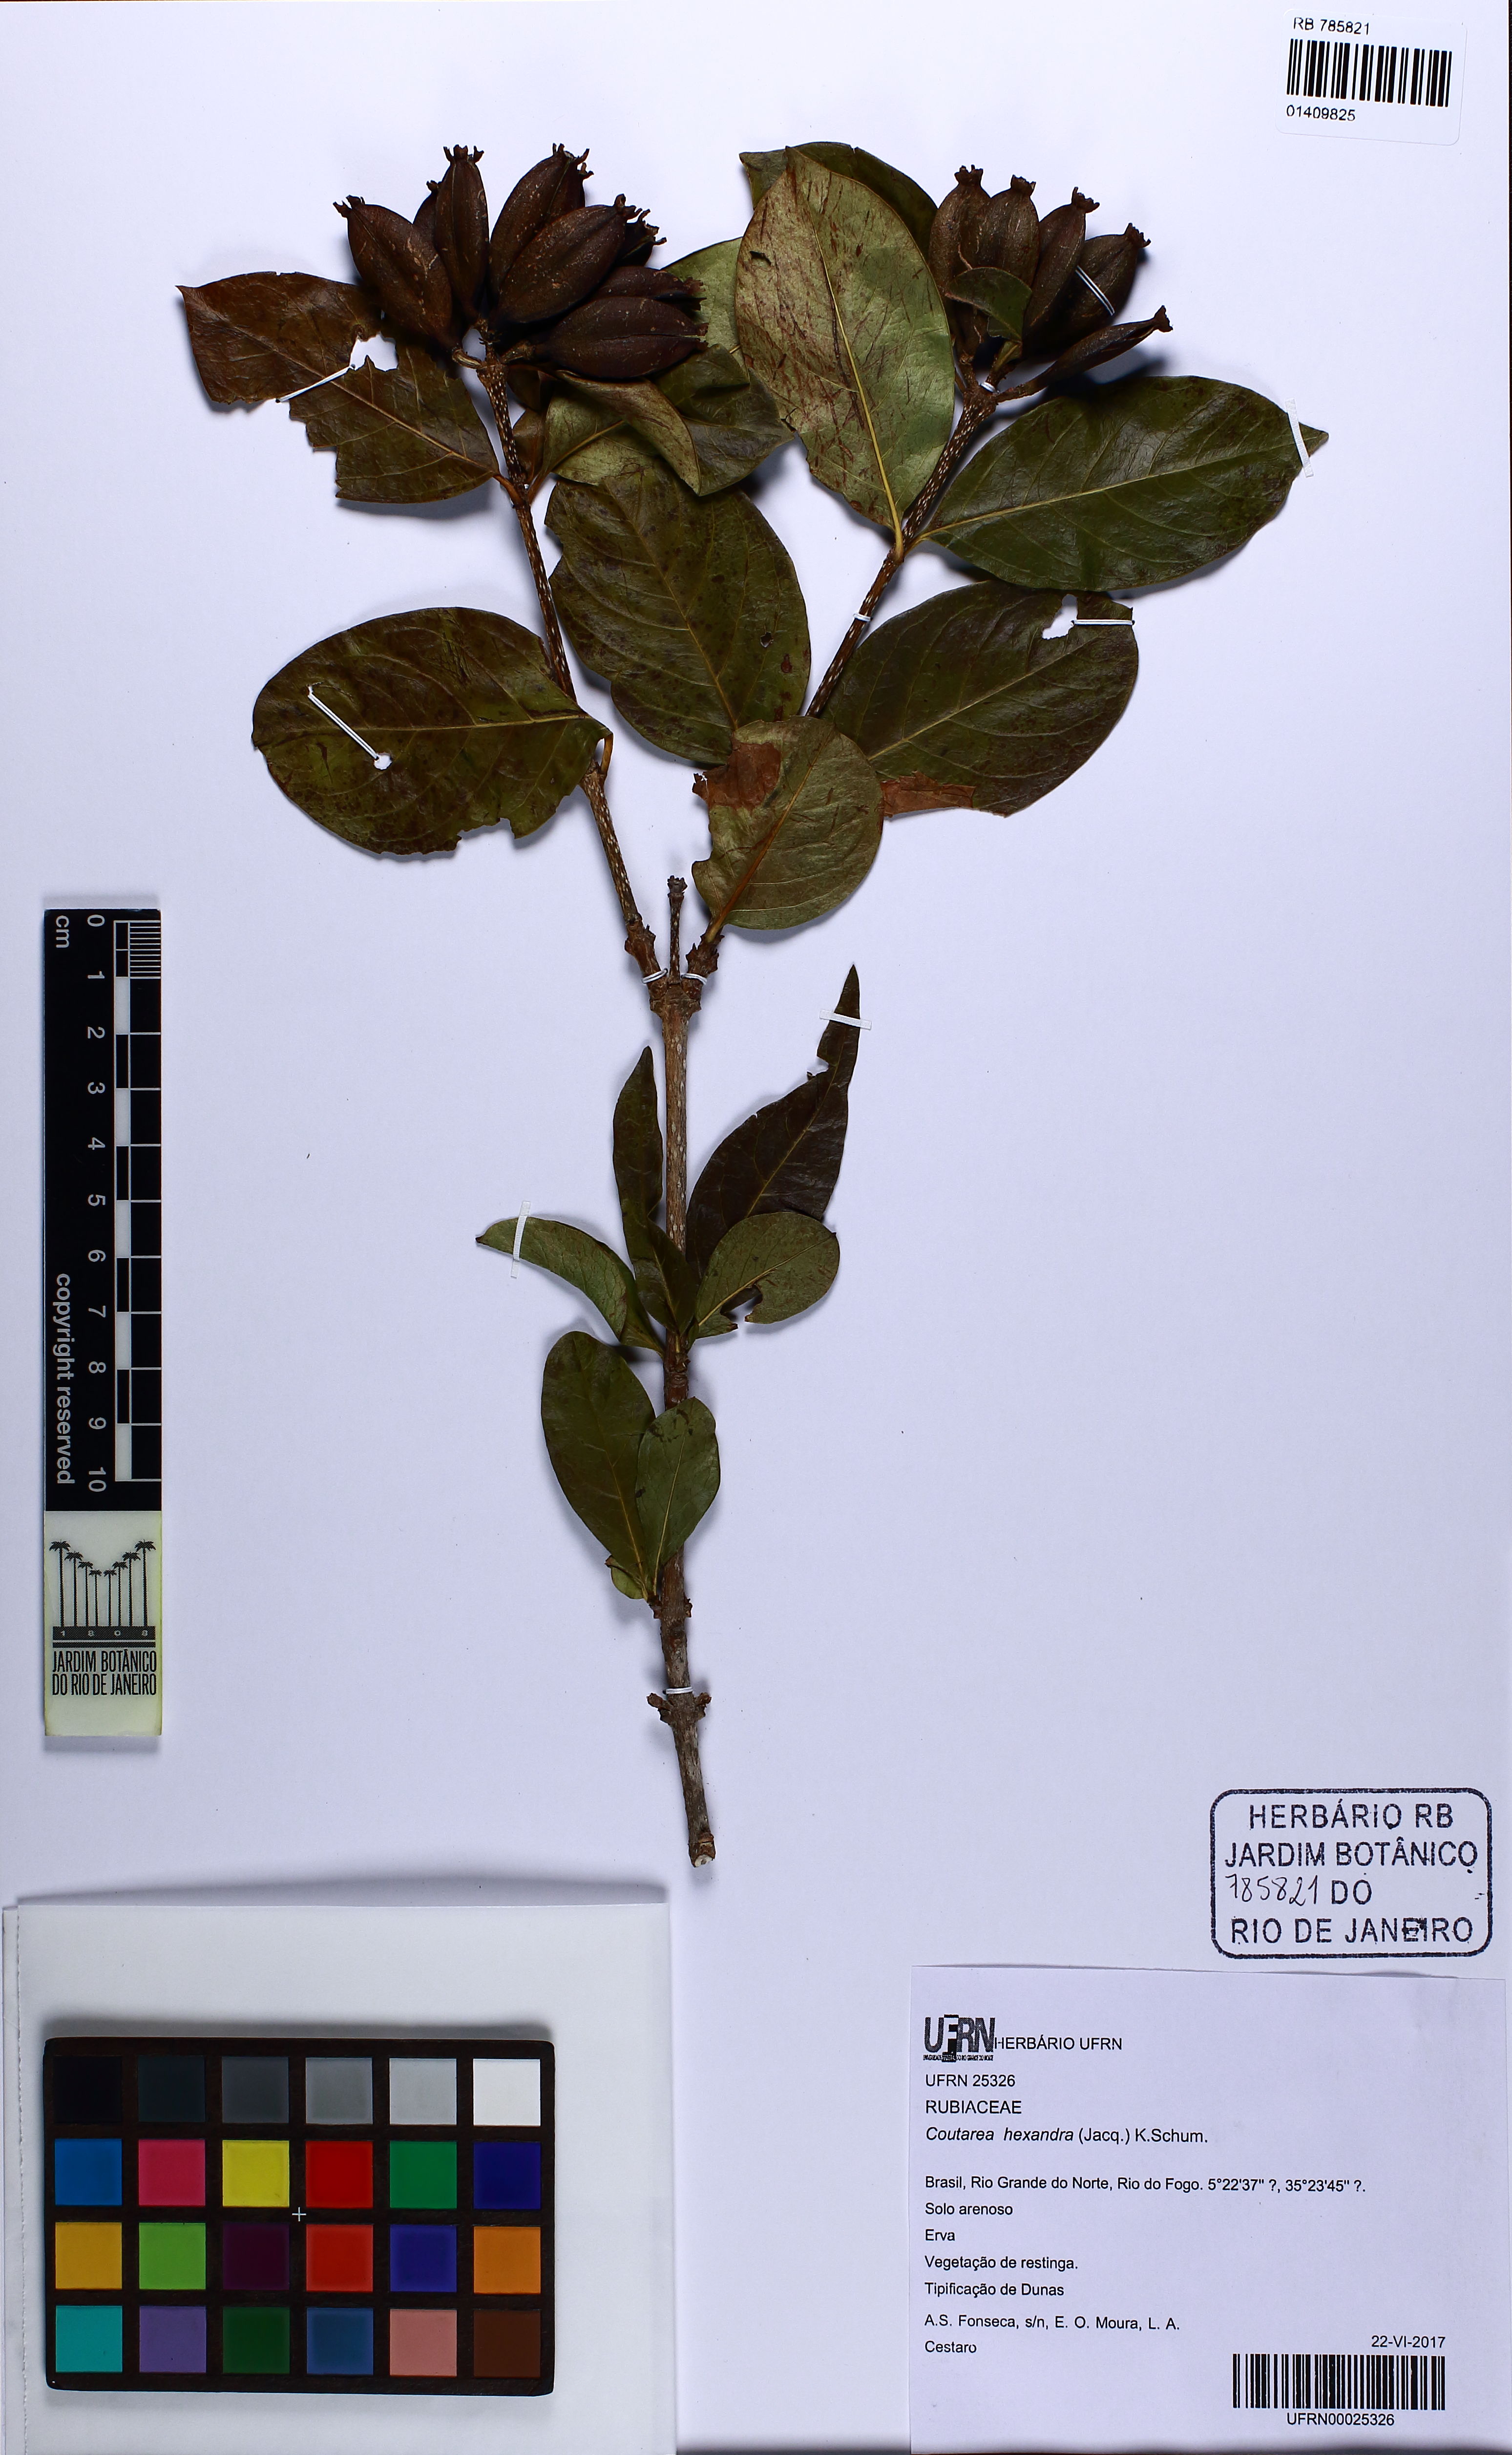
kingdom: Plantae
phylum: Tracheophyta
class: Magnoliopsida
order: Gentianales
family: Rubiaceae
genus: Coutarea
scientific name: Coutarea hexandra
